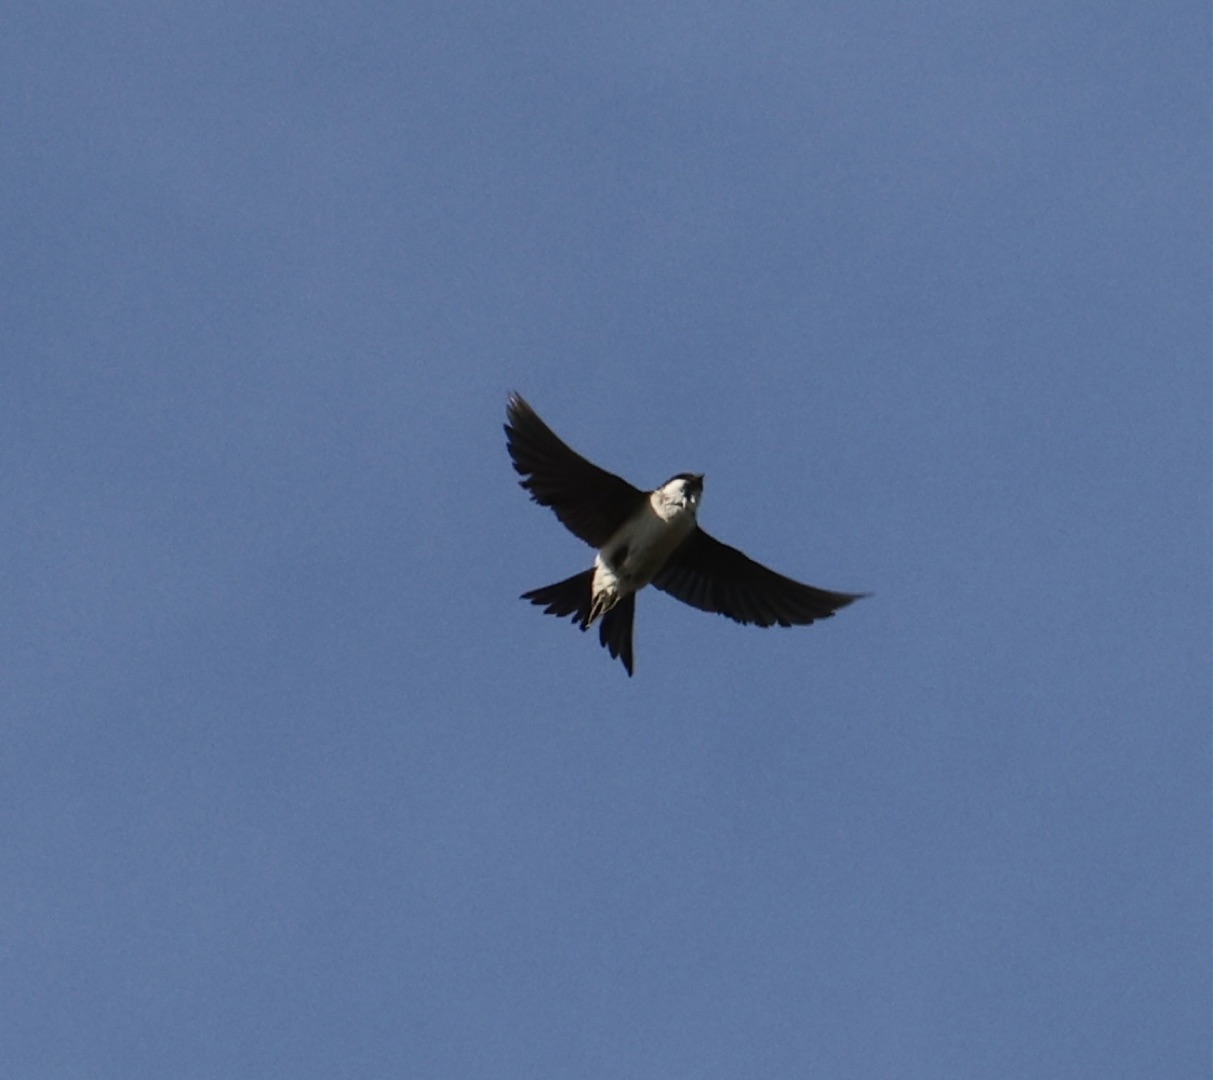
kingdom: Animalia
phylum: Chordata
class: Aves
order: Passeriformes
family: Hirundinidae
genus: Delichon
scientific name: Delichon urbicum
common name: Bysvale
